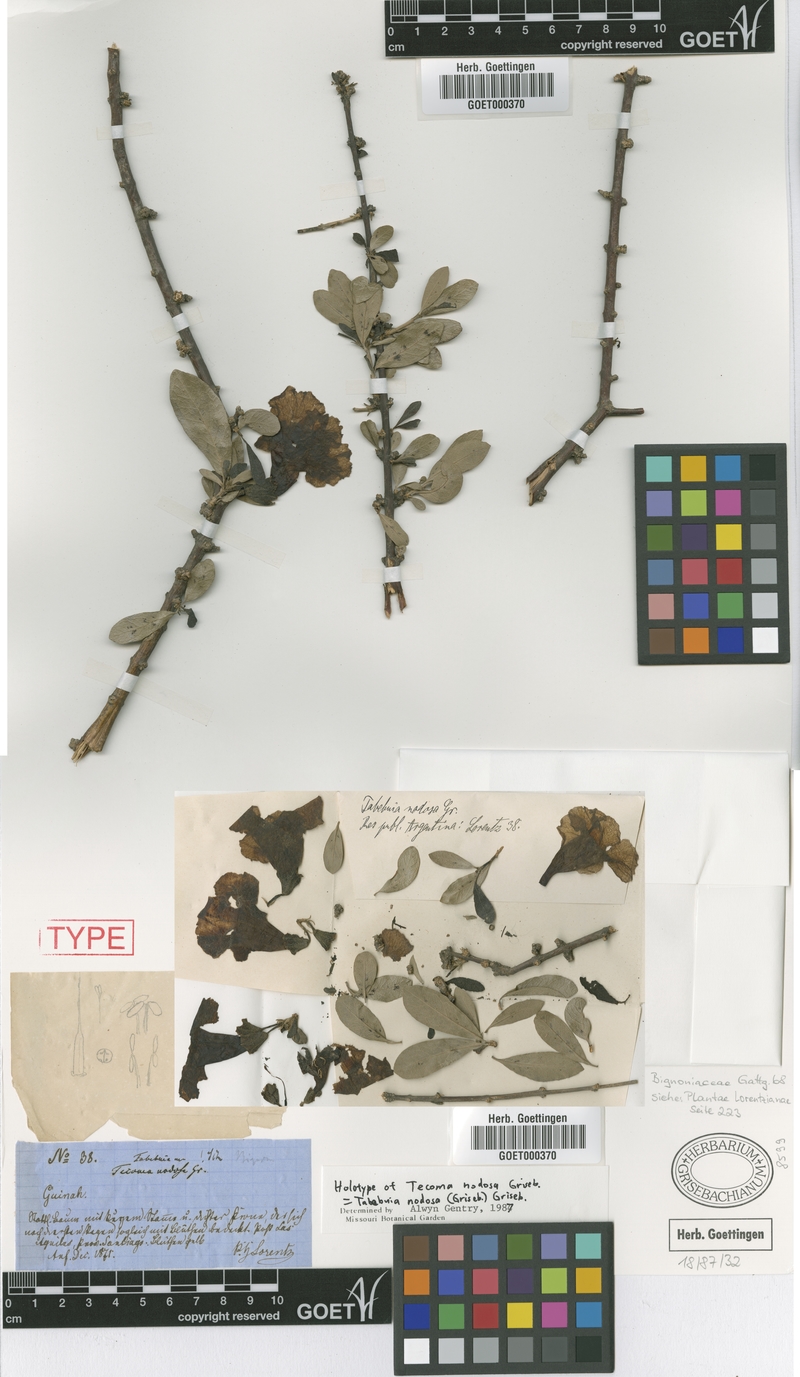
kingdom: Plantae
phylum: Tracheophyta
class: Magnoliopsida
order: Lamiales
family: Bignoniaceae
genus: Tabebuia
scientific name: Tabebuia nodosa
